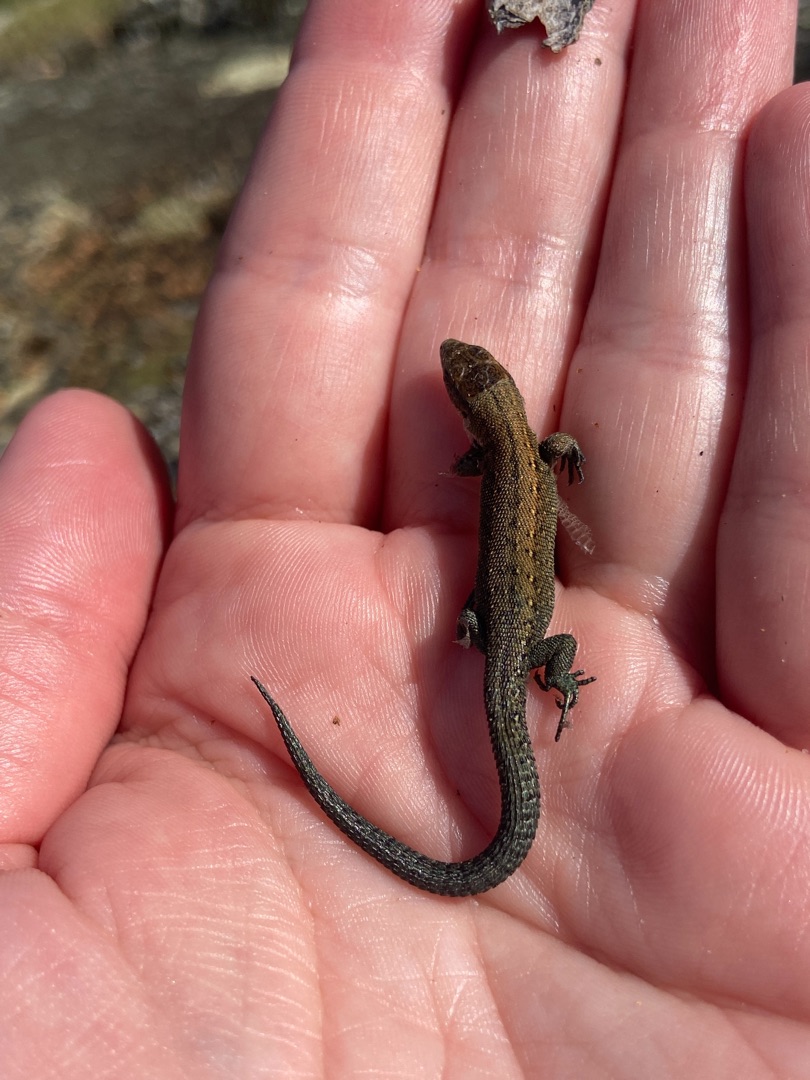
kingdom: Animalia
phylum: Chordata
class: Squamata
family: Lacertidae
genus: Zootoca
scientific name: Zootoca vivipara
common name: Skovfirben
